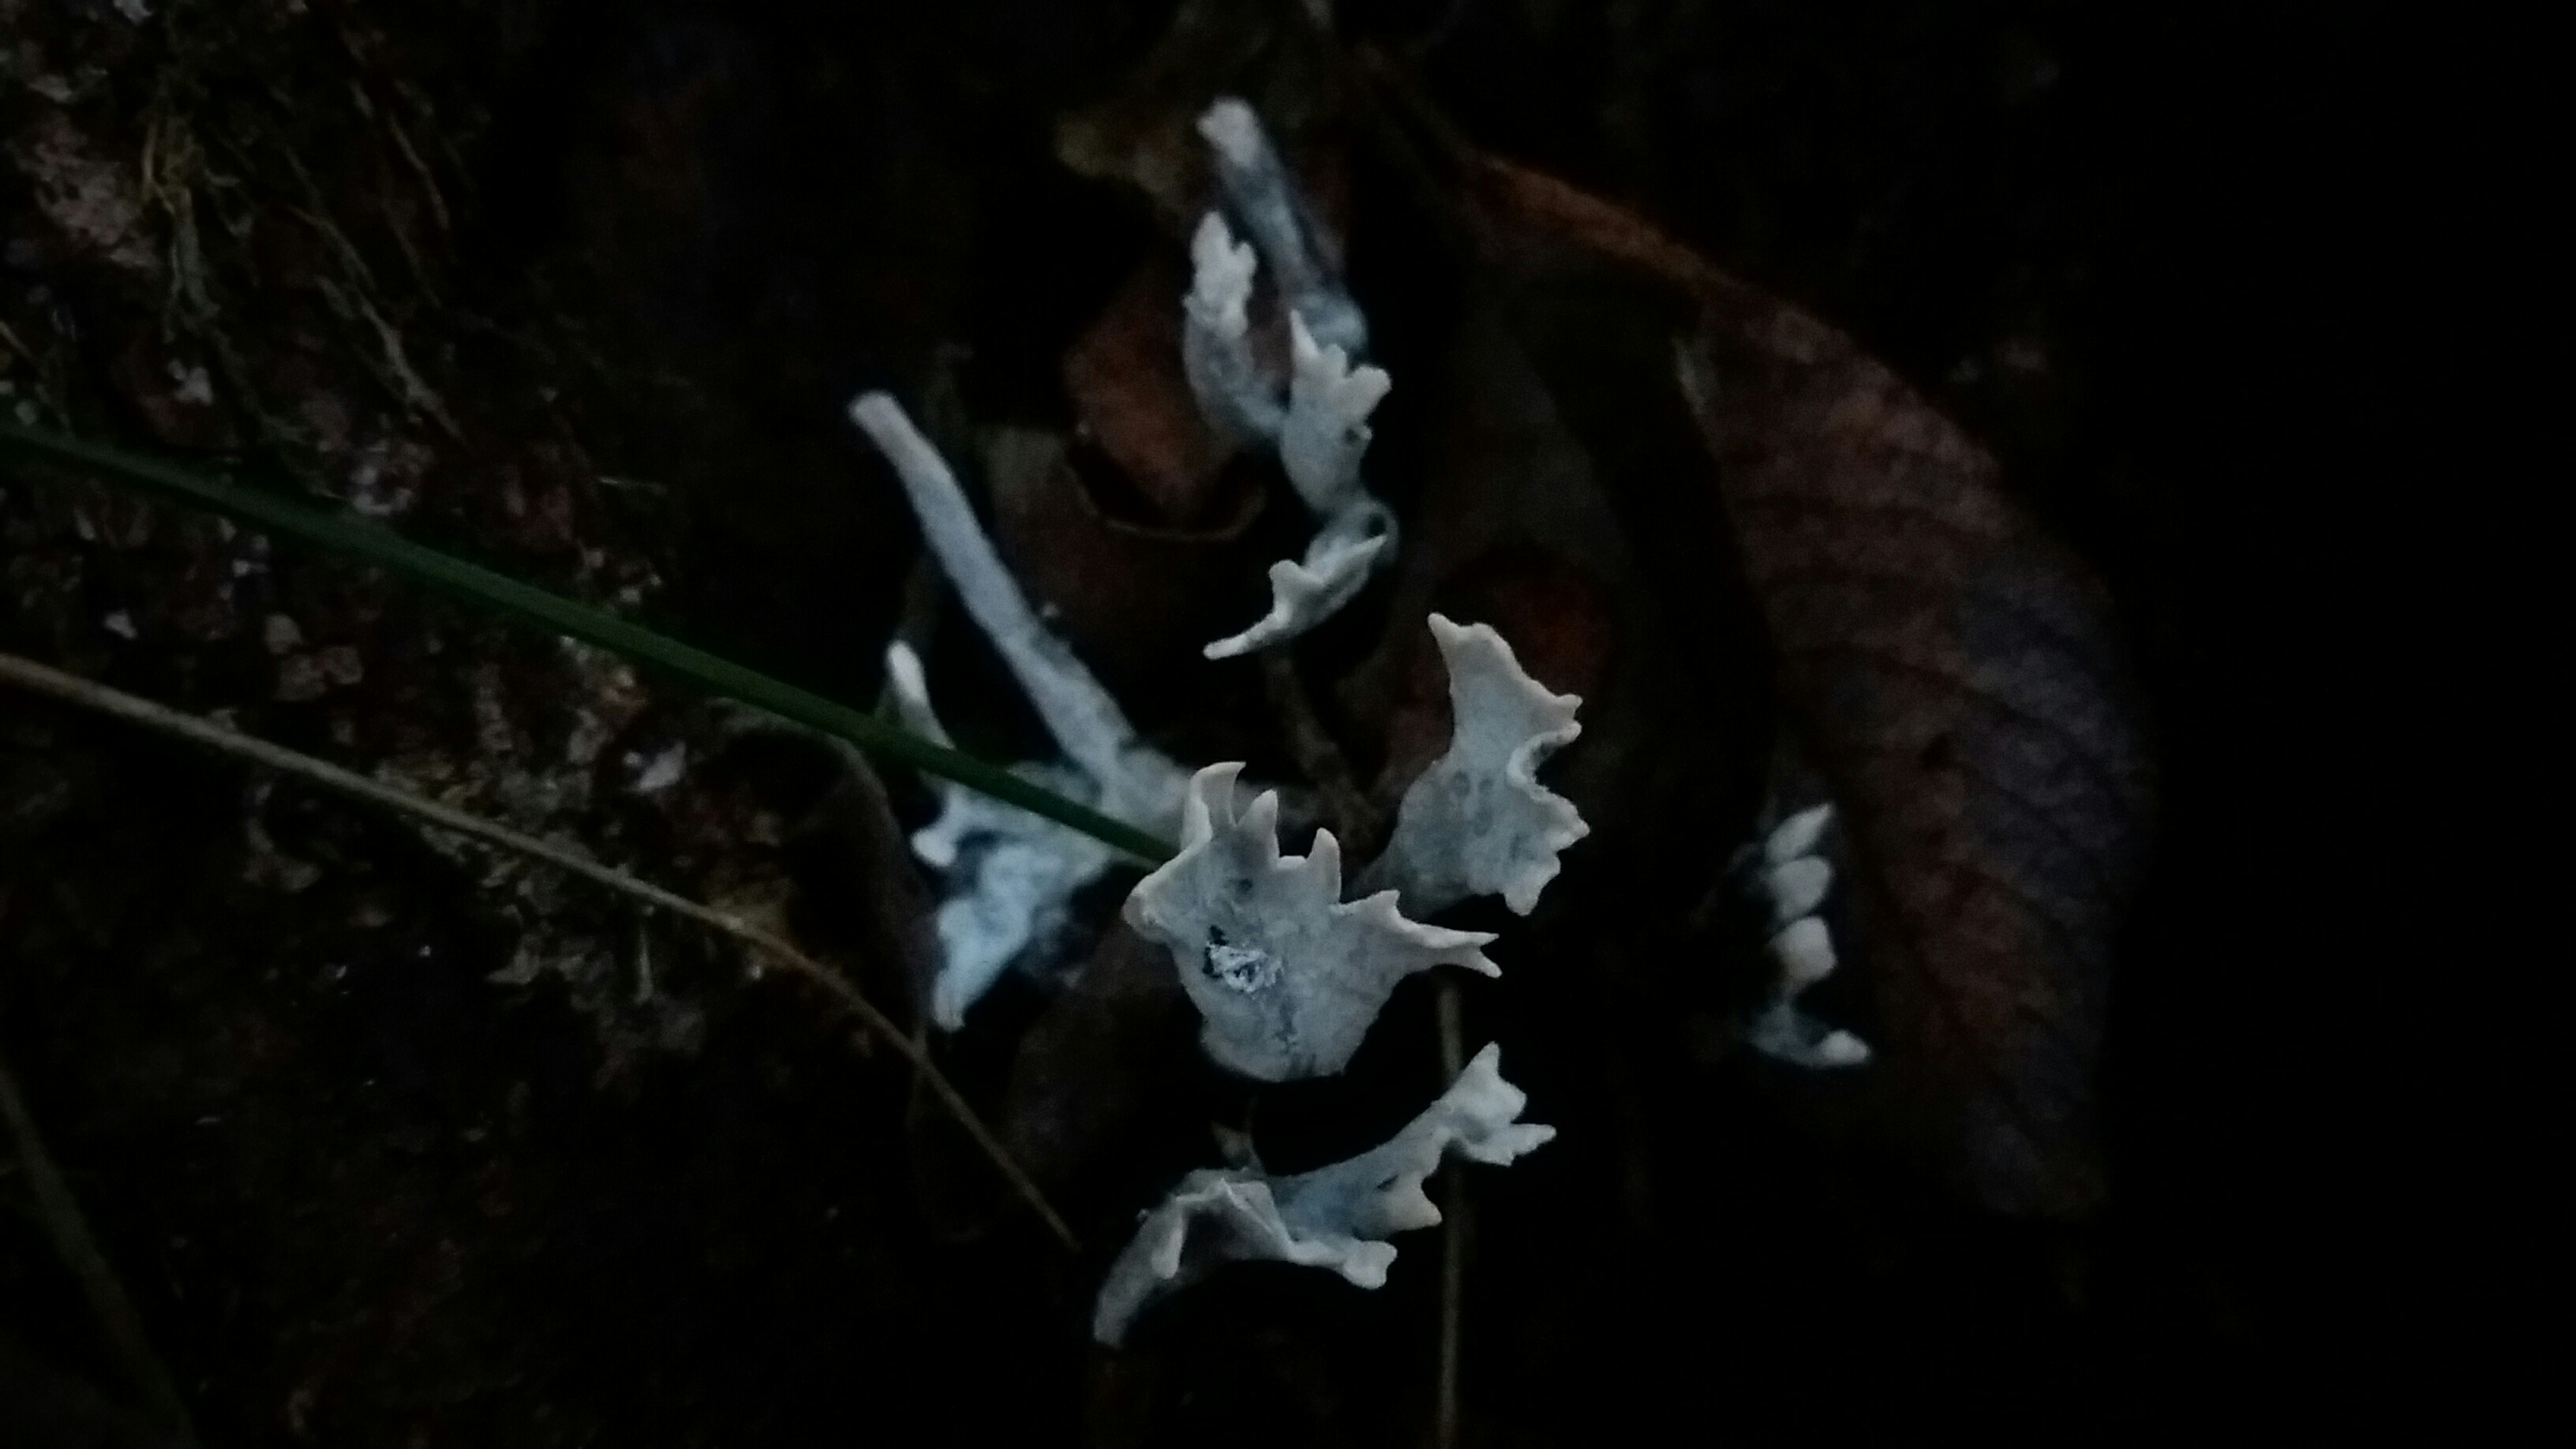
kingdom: Fungi
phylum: Ascomycota
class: Sordariomycetes
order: Xylariales
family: Xylariaceae
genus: Xylaria
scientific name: Xylaria hypoxylon
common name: grenet stødsvamp
